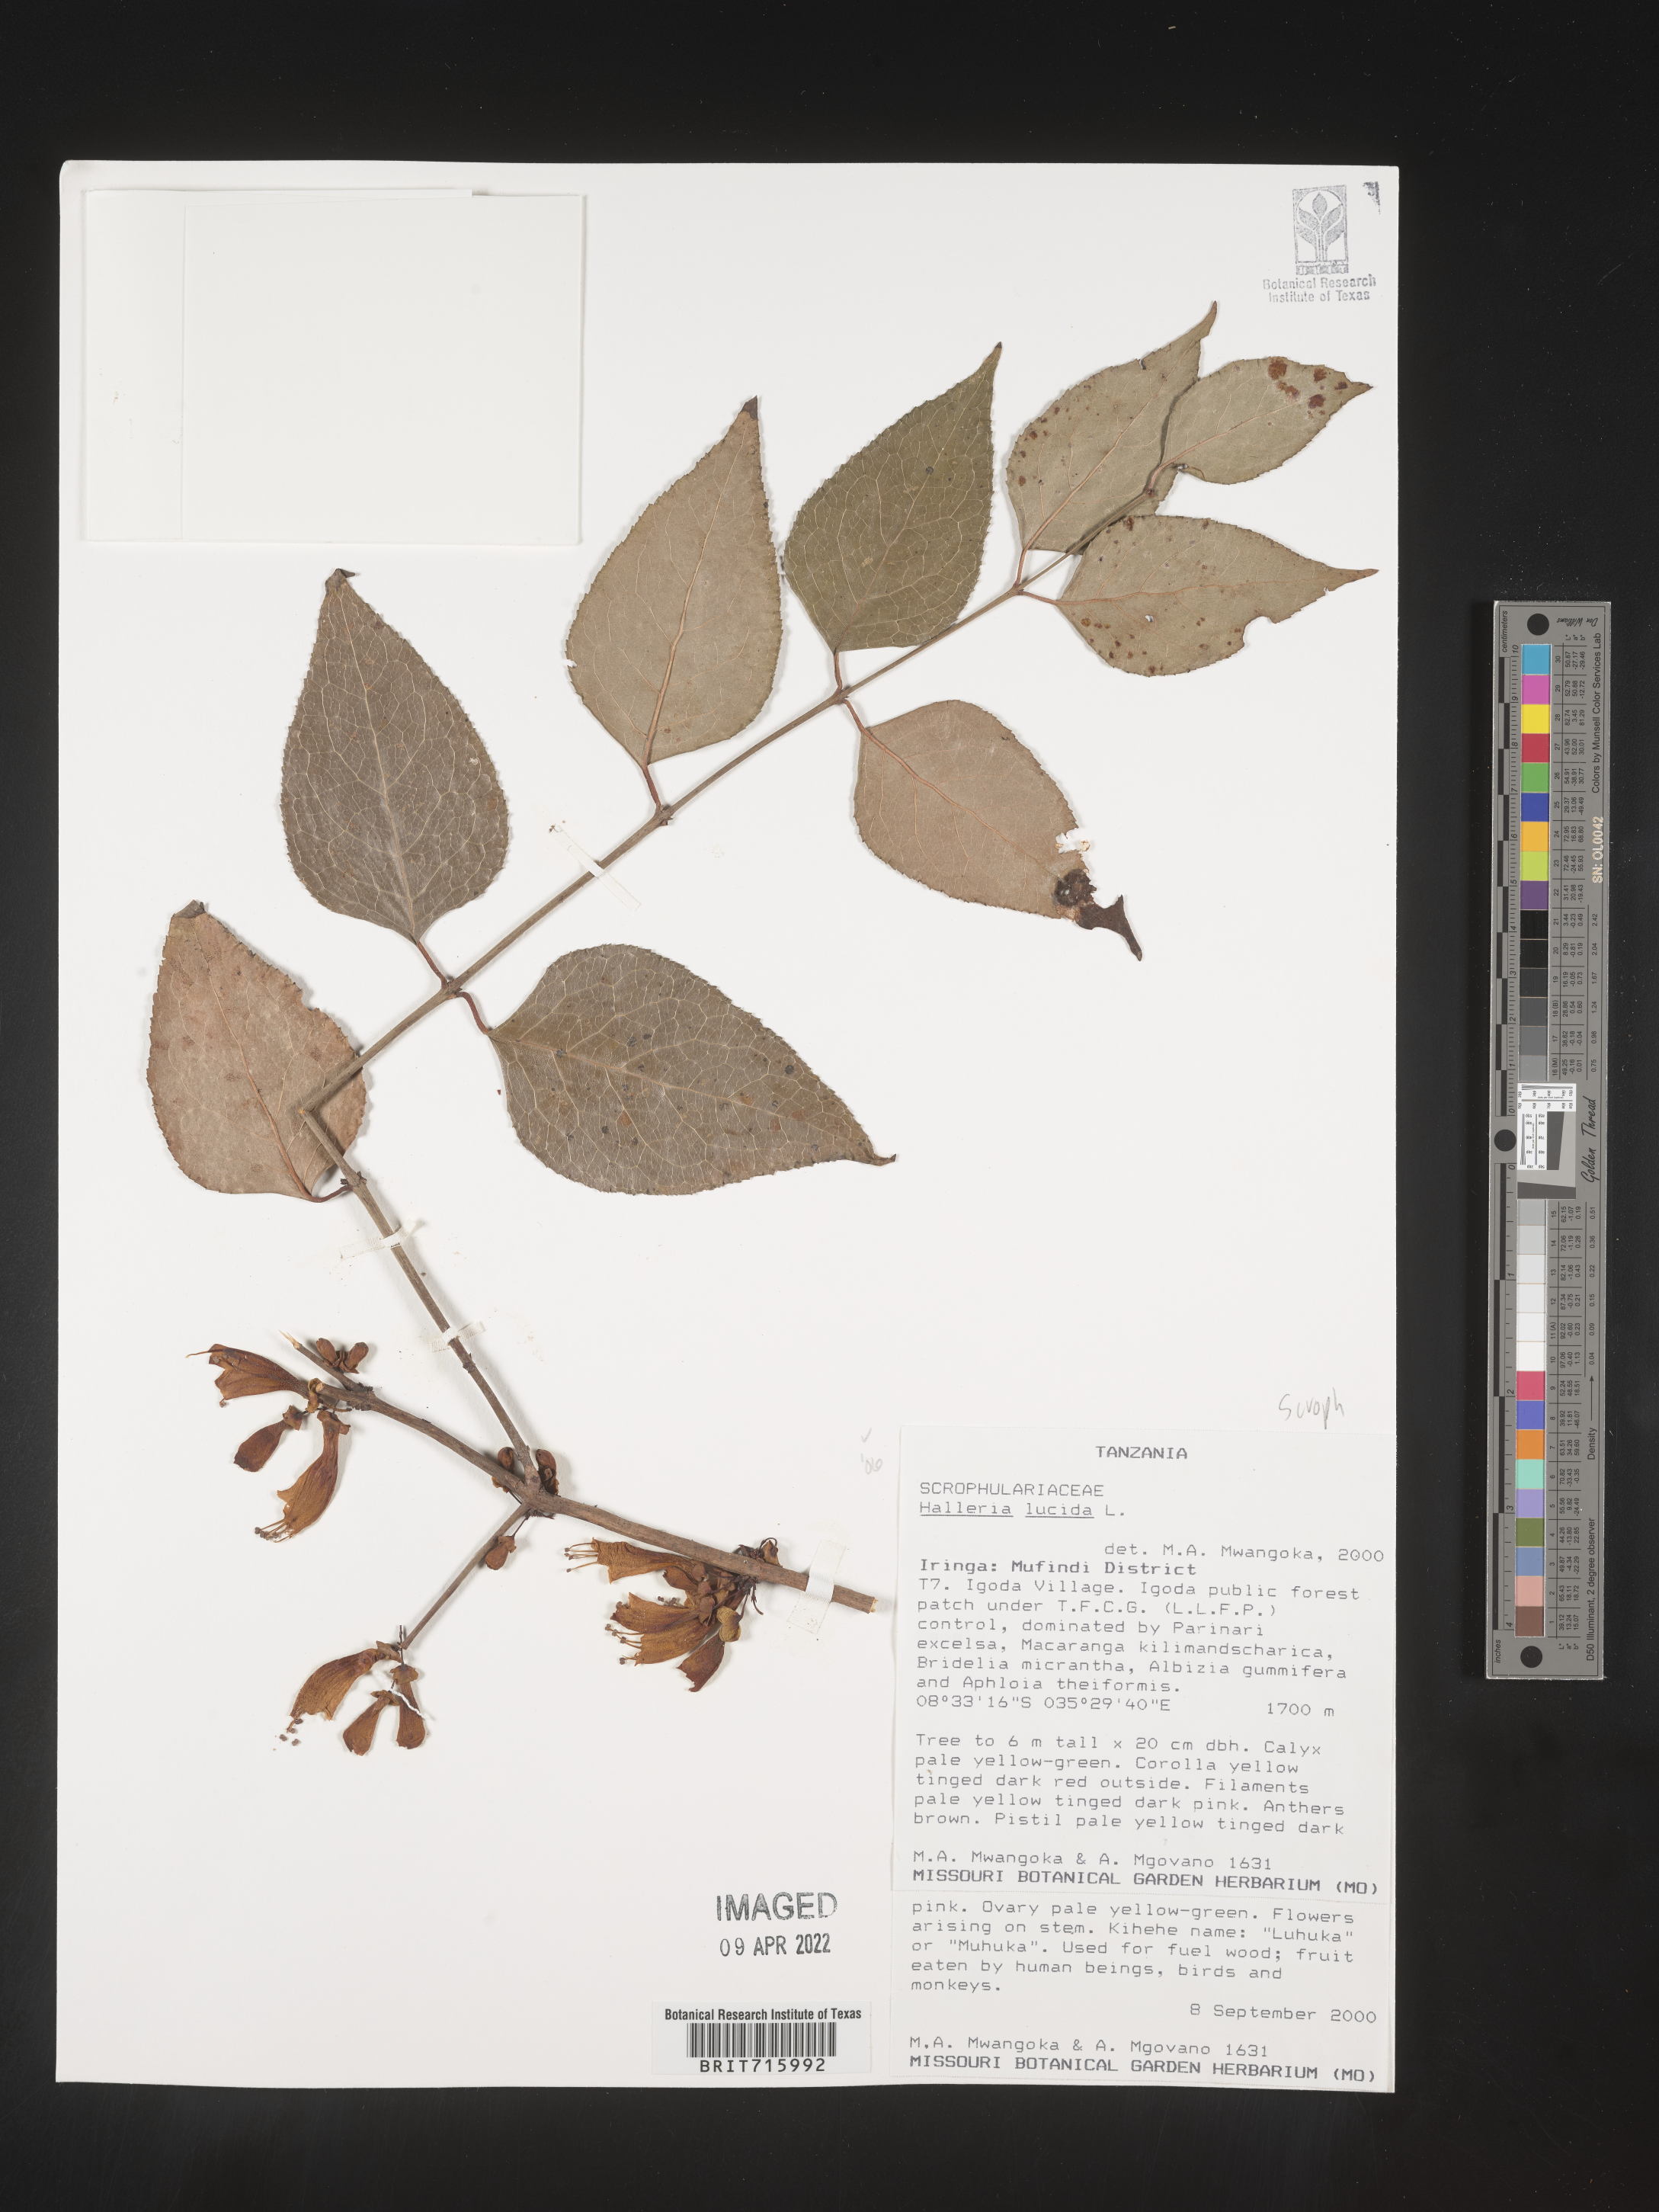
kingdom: Plantae
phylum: Tracheophyta
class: Magnoliopsida
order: Lamiales
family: Stilbaceae
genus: Halleria
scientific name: Halleria
